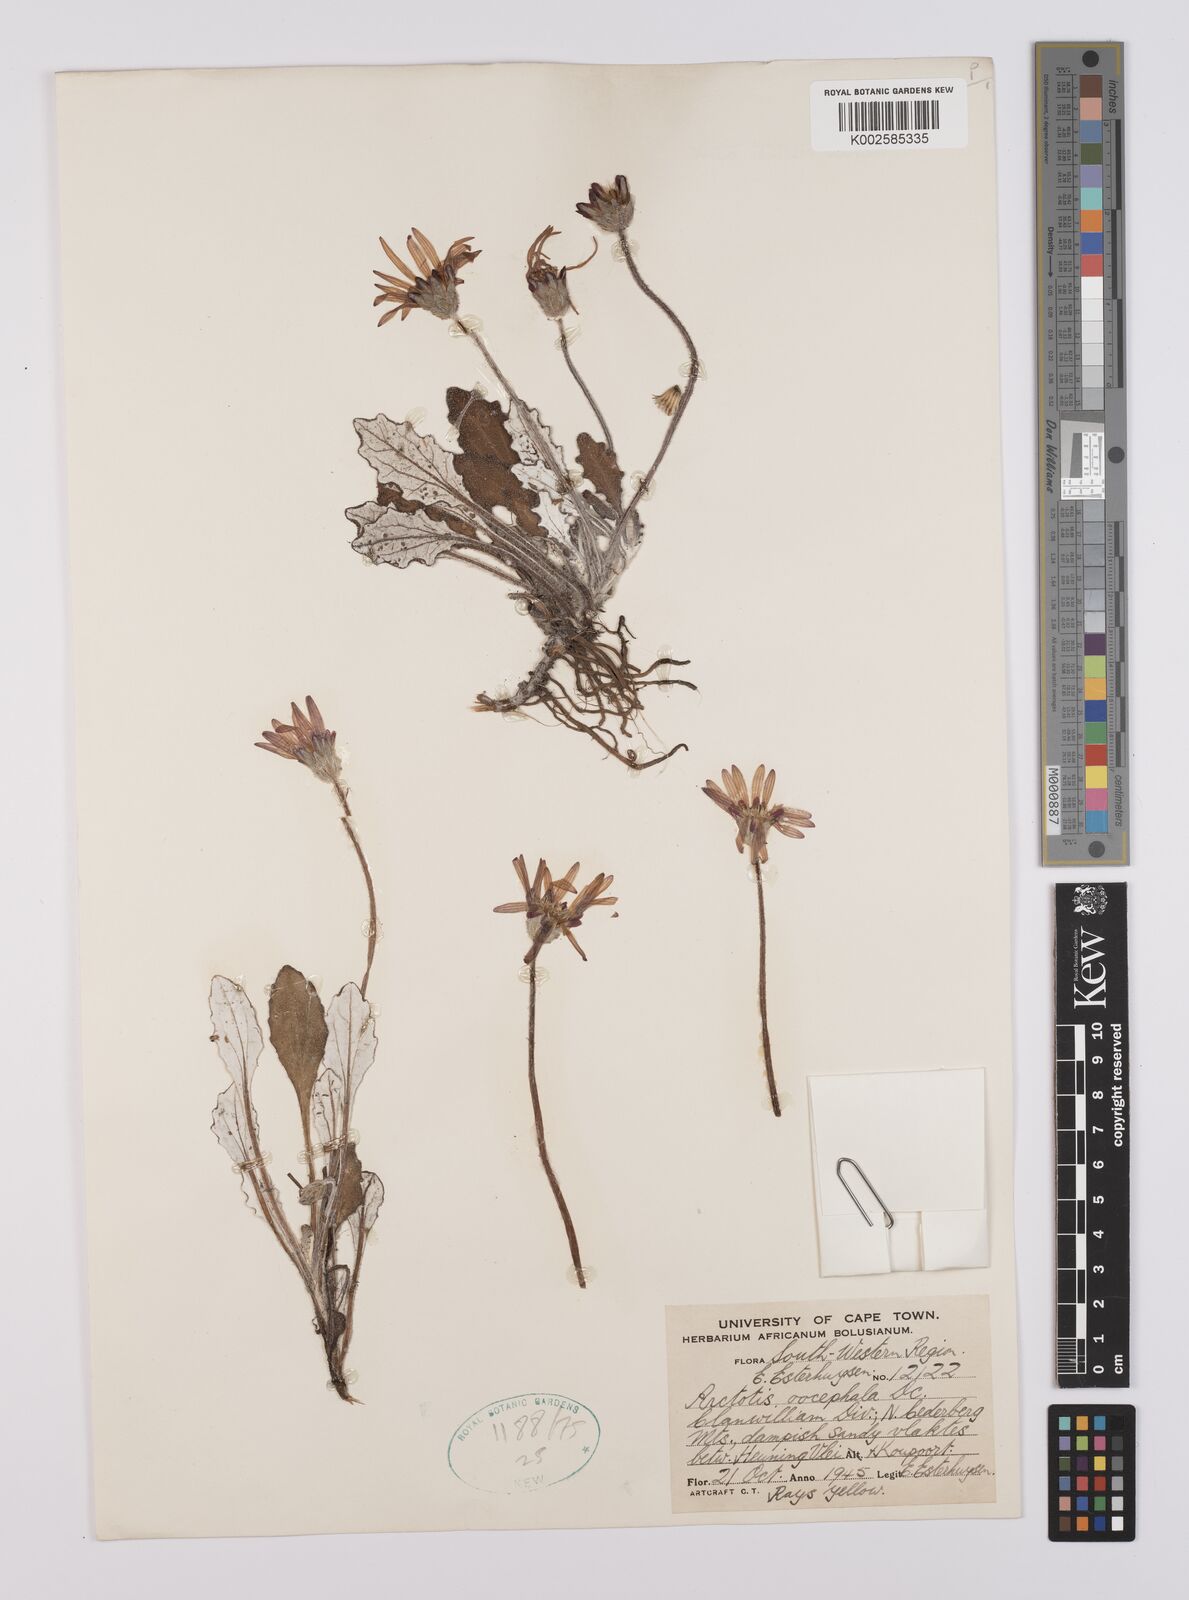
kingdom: Plantae
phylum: Tracheophyta
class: Magnoliopsida
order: Asterales
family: Asteraceae
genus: Haplocarpha
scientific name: Haplocarpha oocephala
